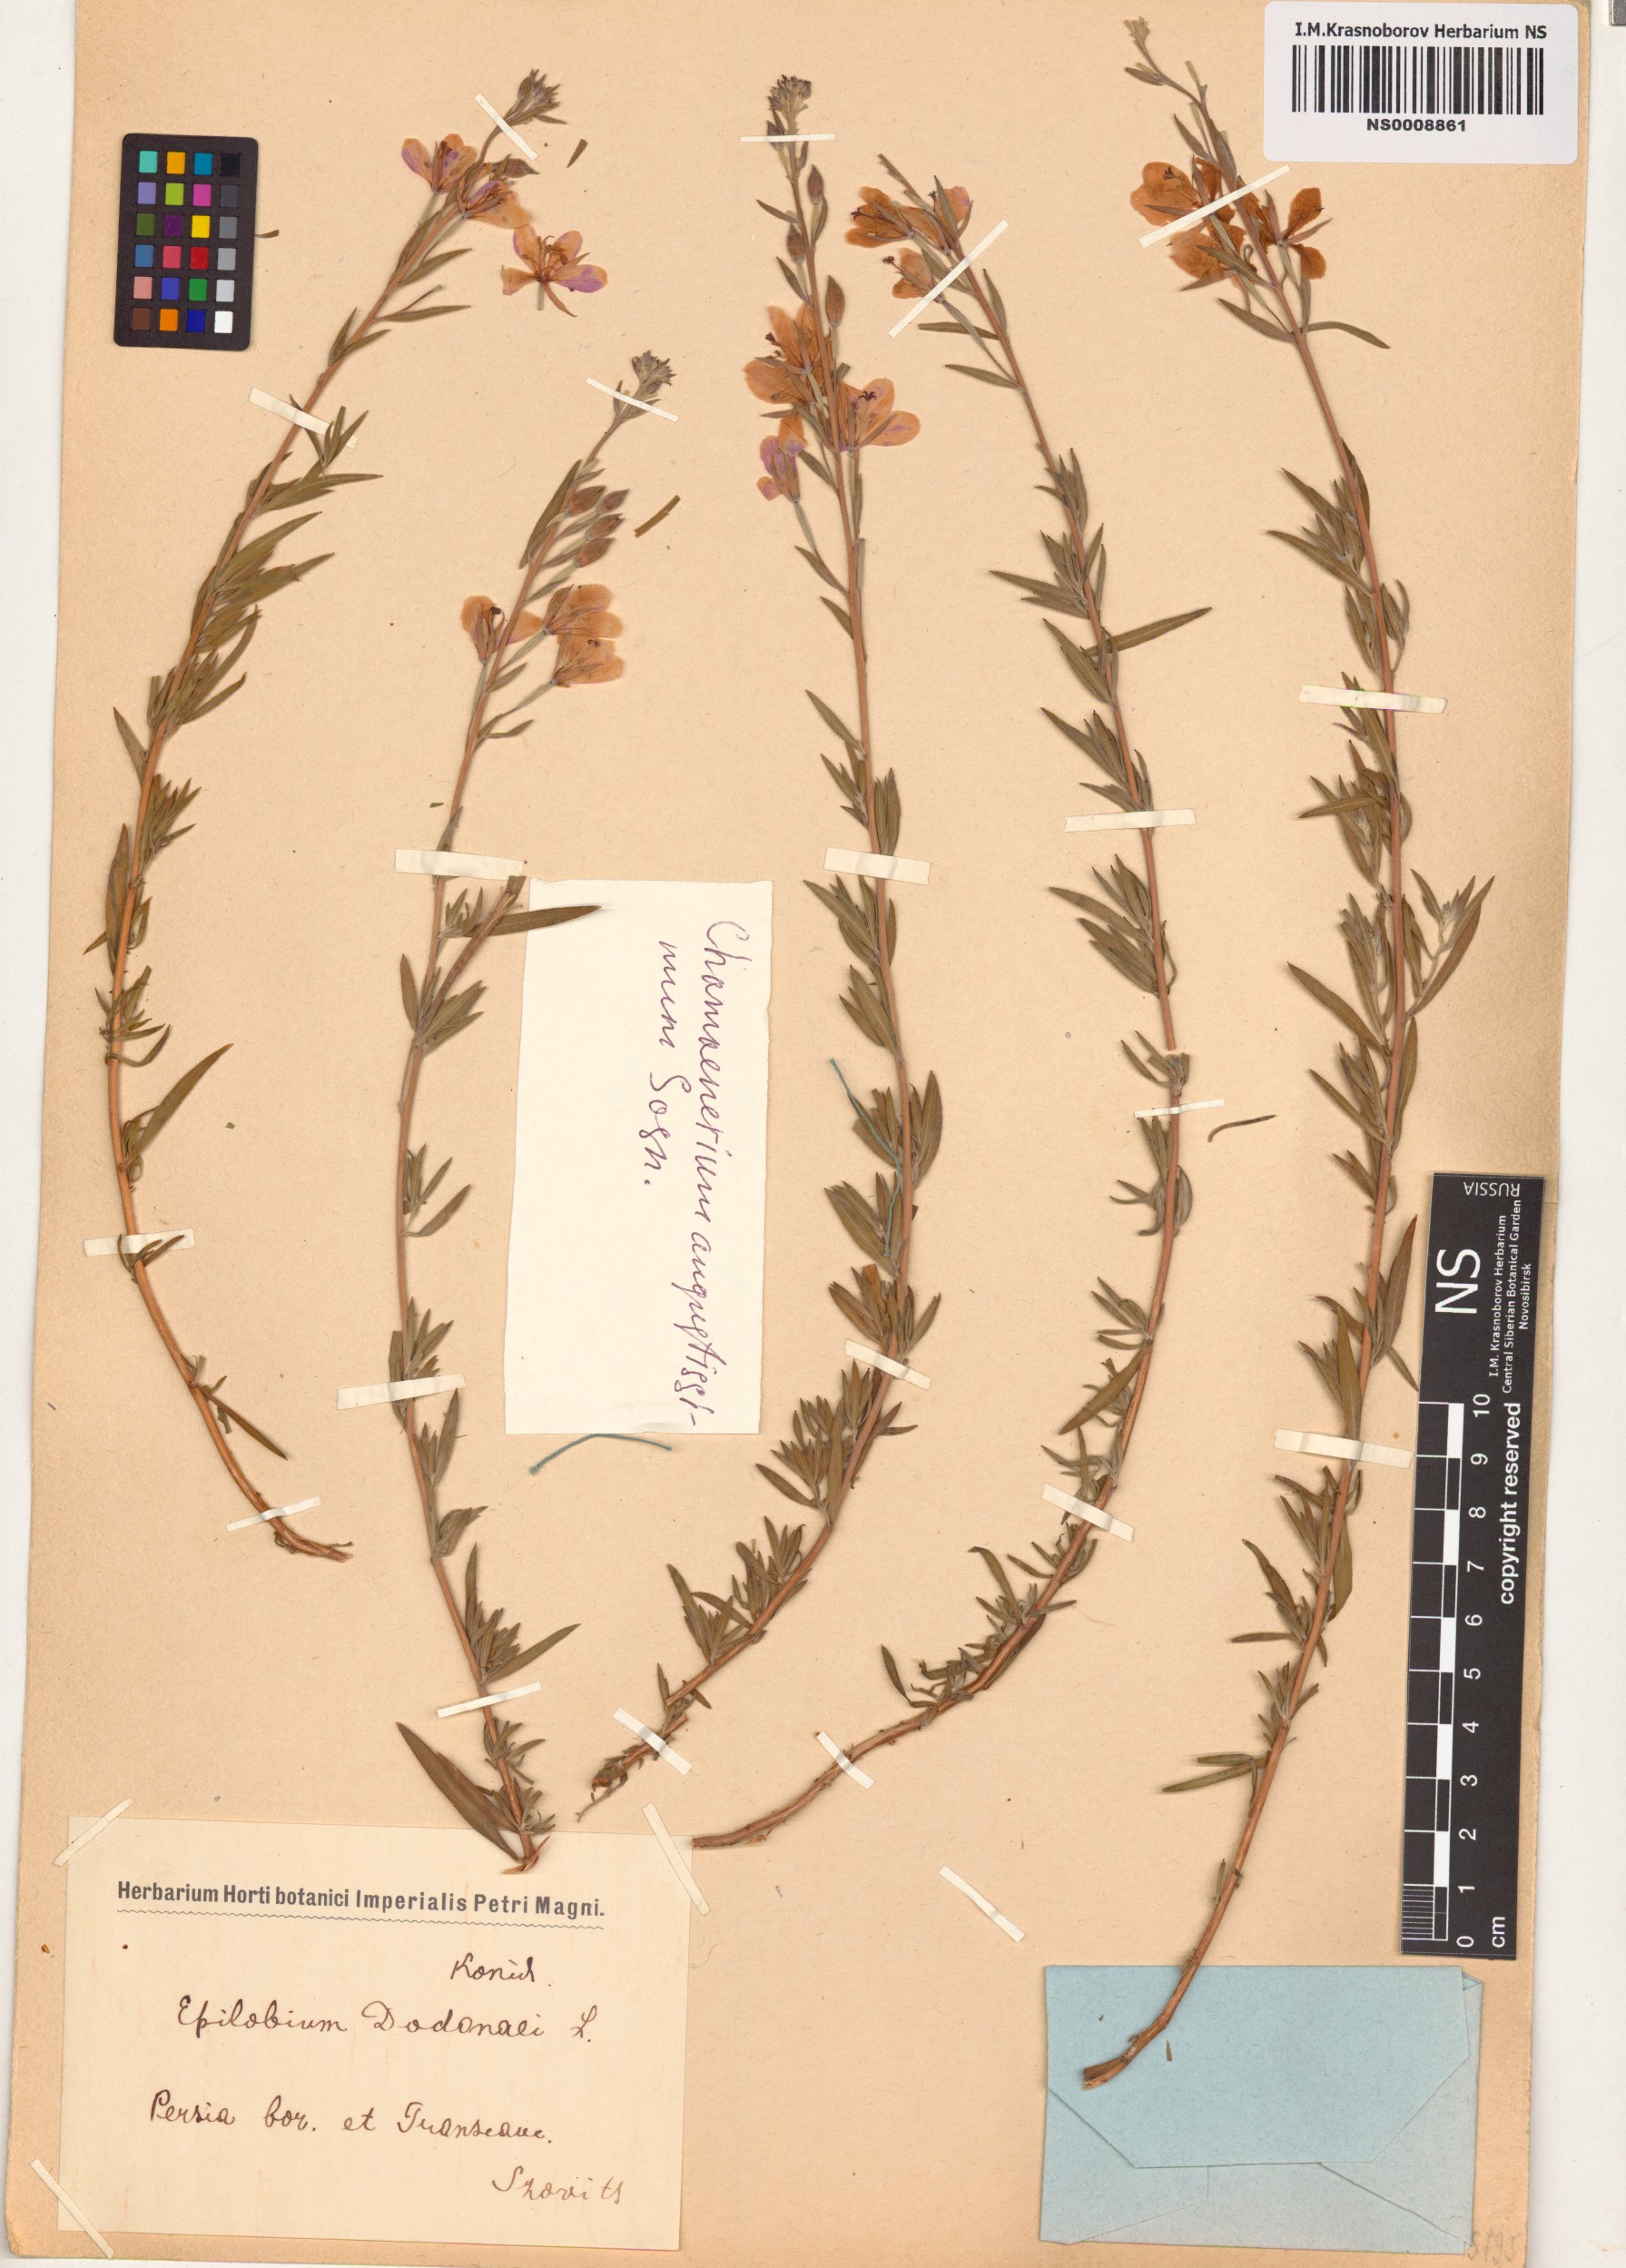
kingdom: Plantae
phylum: Tracheophyta
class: Magnoliopsida
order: Myrtales
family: Onagraceae
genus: Chamaenerion
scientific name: Chamaenerion angustifolium
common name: Fireweed
